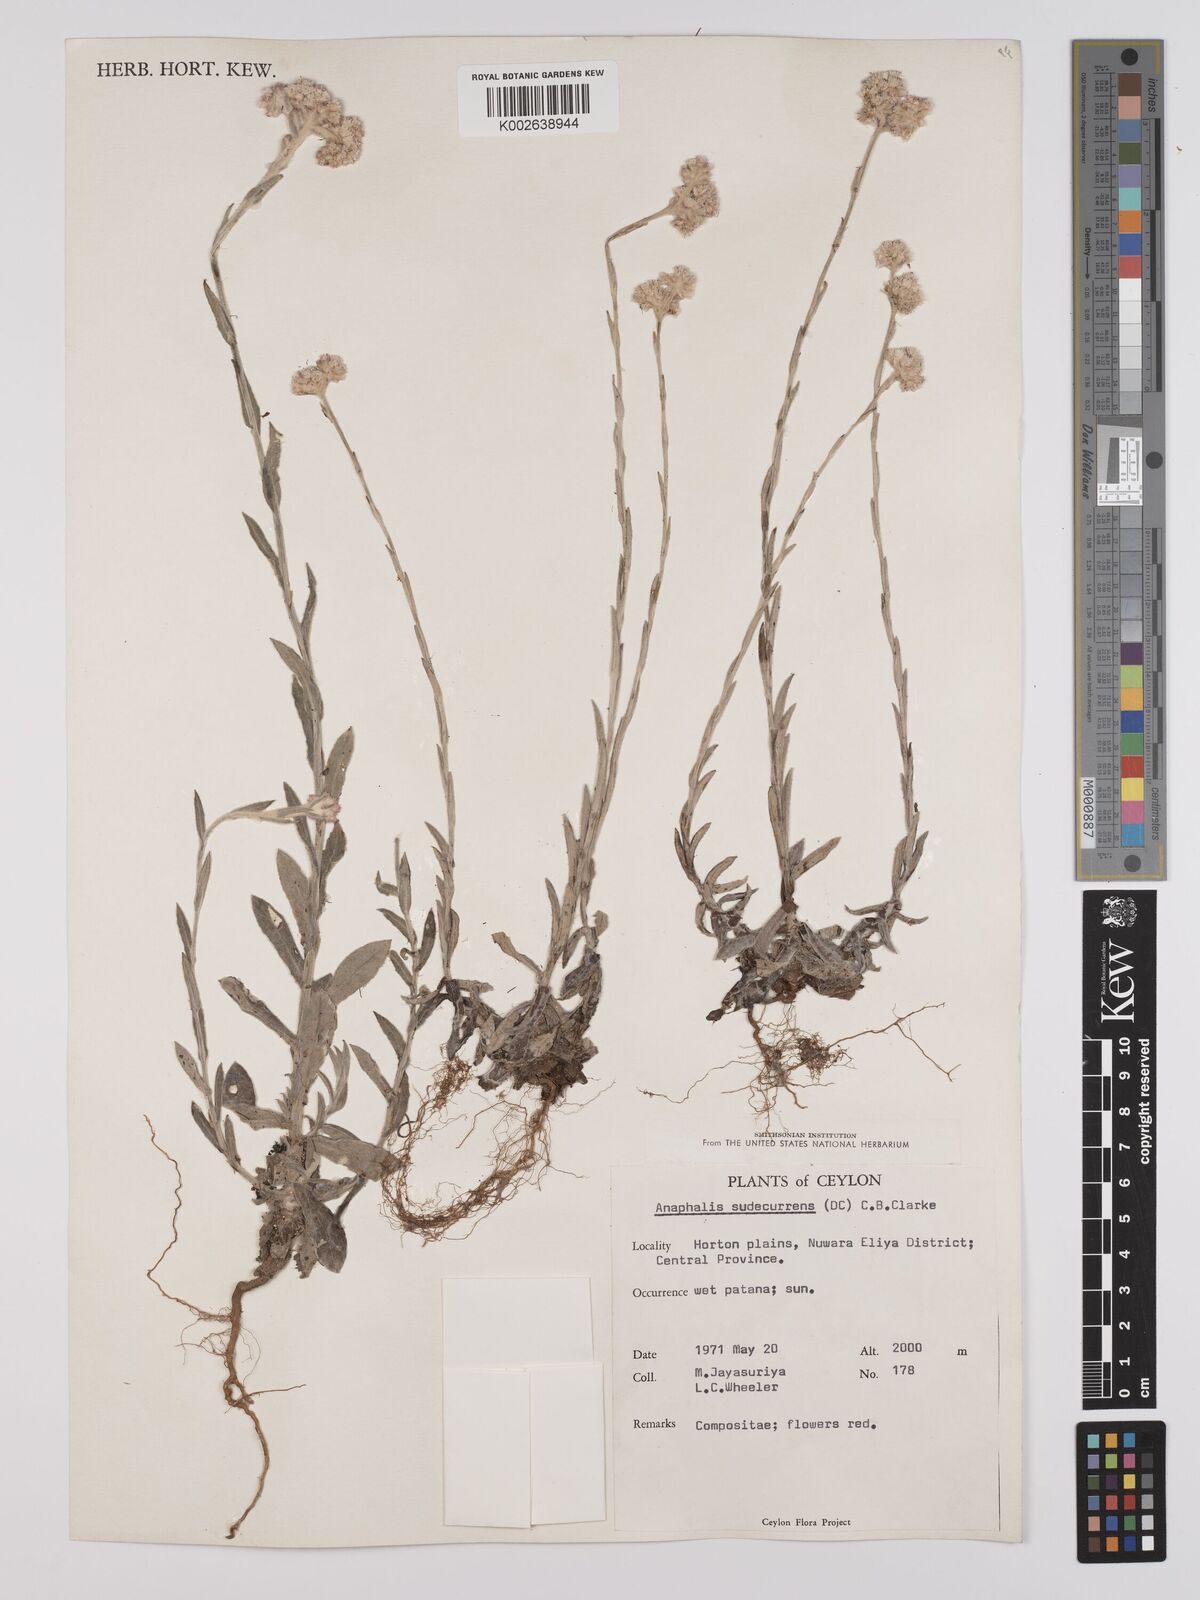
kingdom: Plantae
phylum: Tracheophyta
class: Magnoliopsida
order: Asterales
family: Asteraceae
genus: Anaphalis
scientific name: Anaphalis
